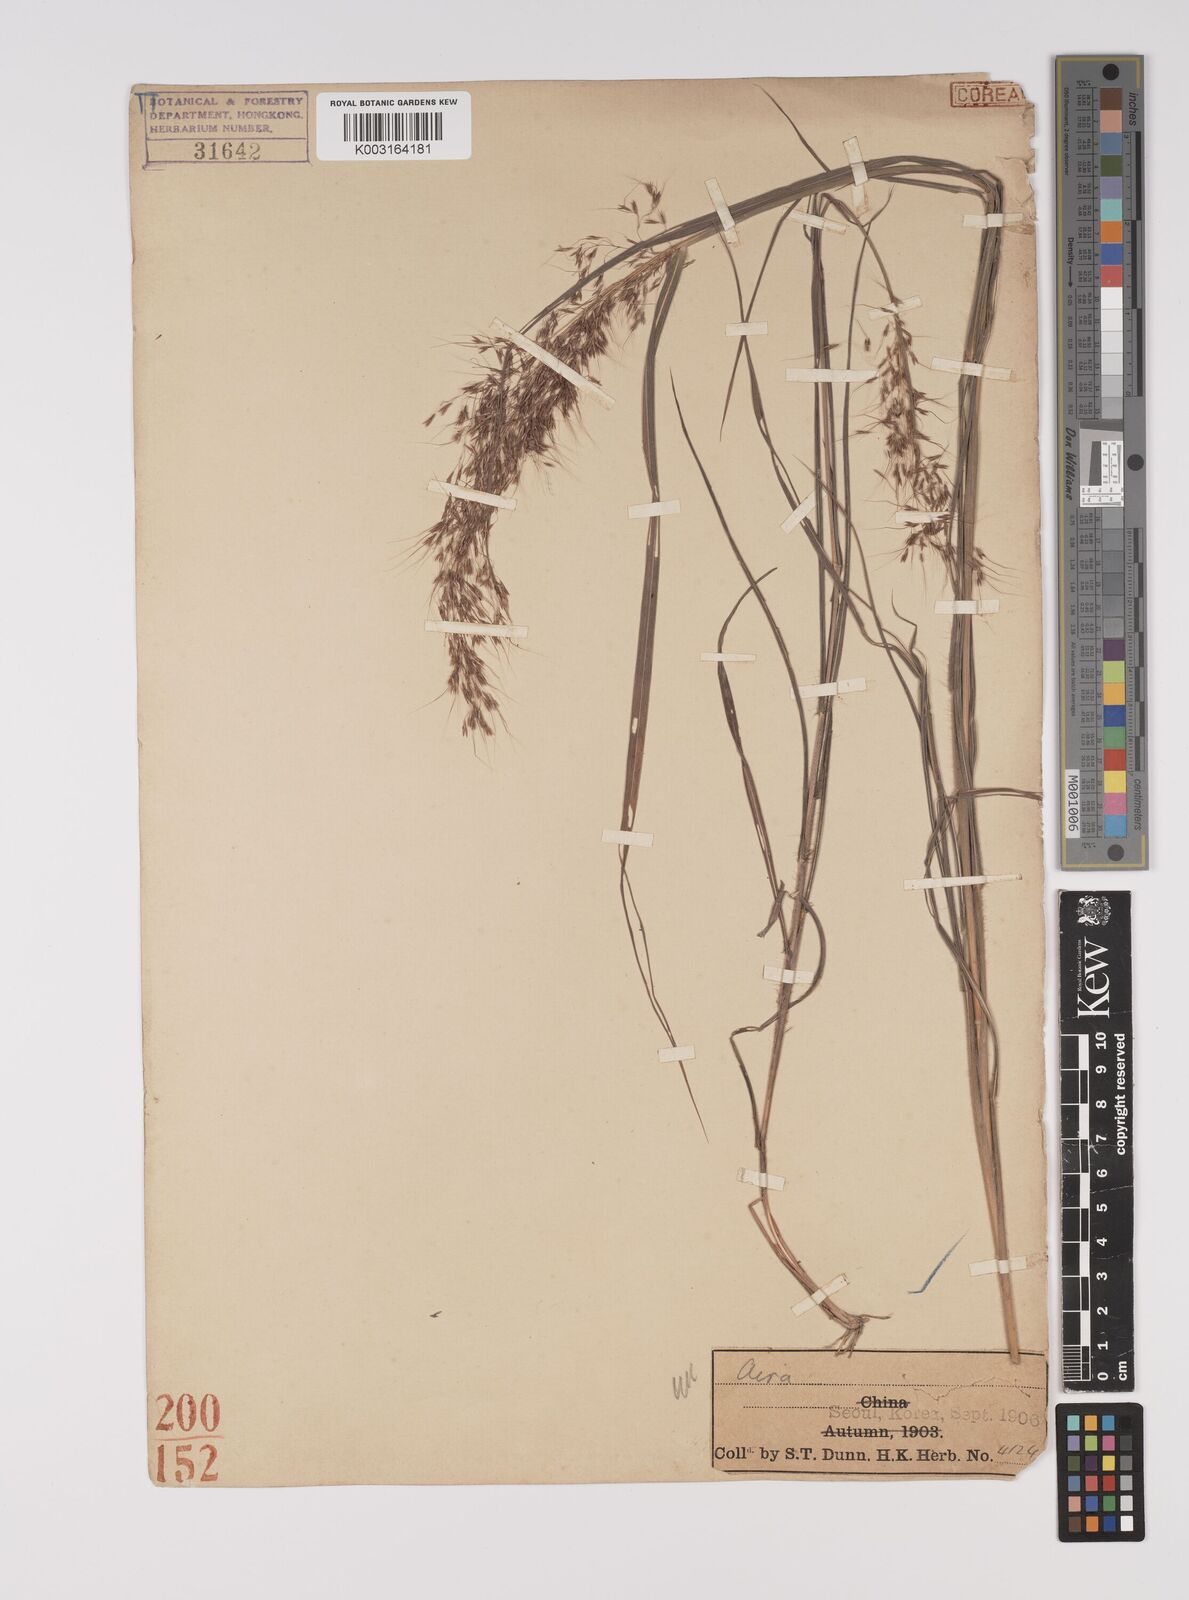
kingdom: Plantae
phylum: Tracheophyta
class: Liliopsida
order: Poales
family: Poaceae
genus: Capillipedium
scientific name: Capillipedium parviflorum
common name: Golden-beard
